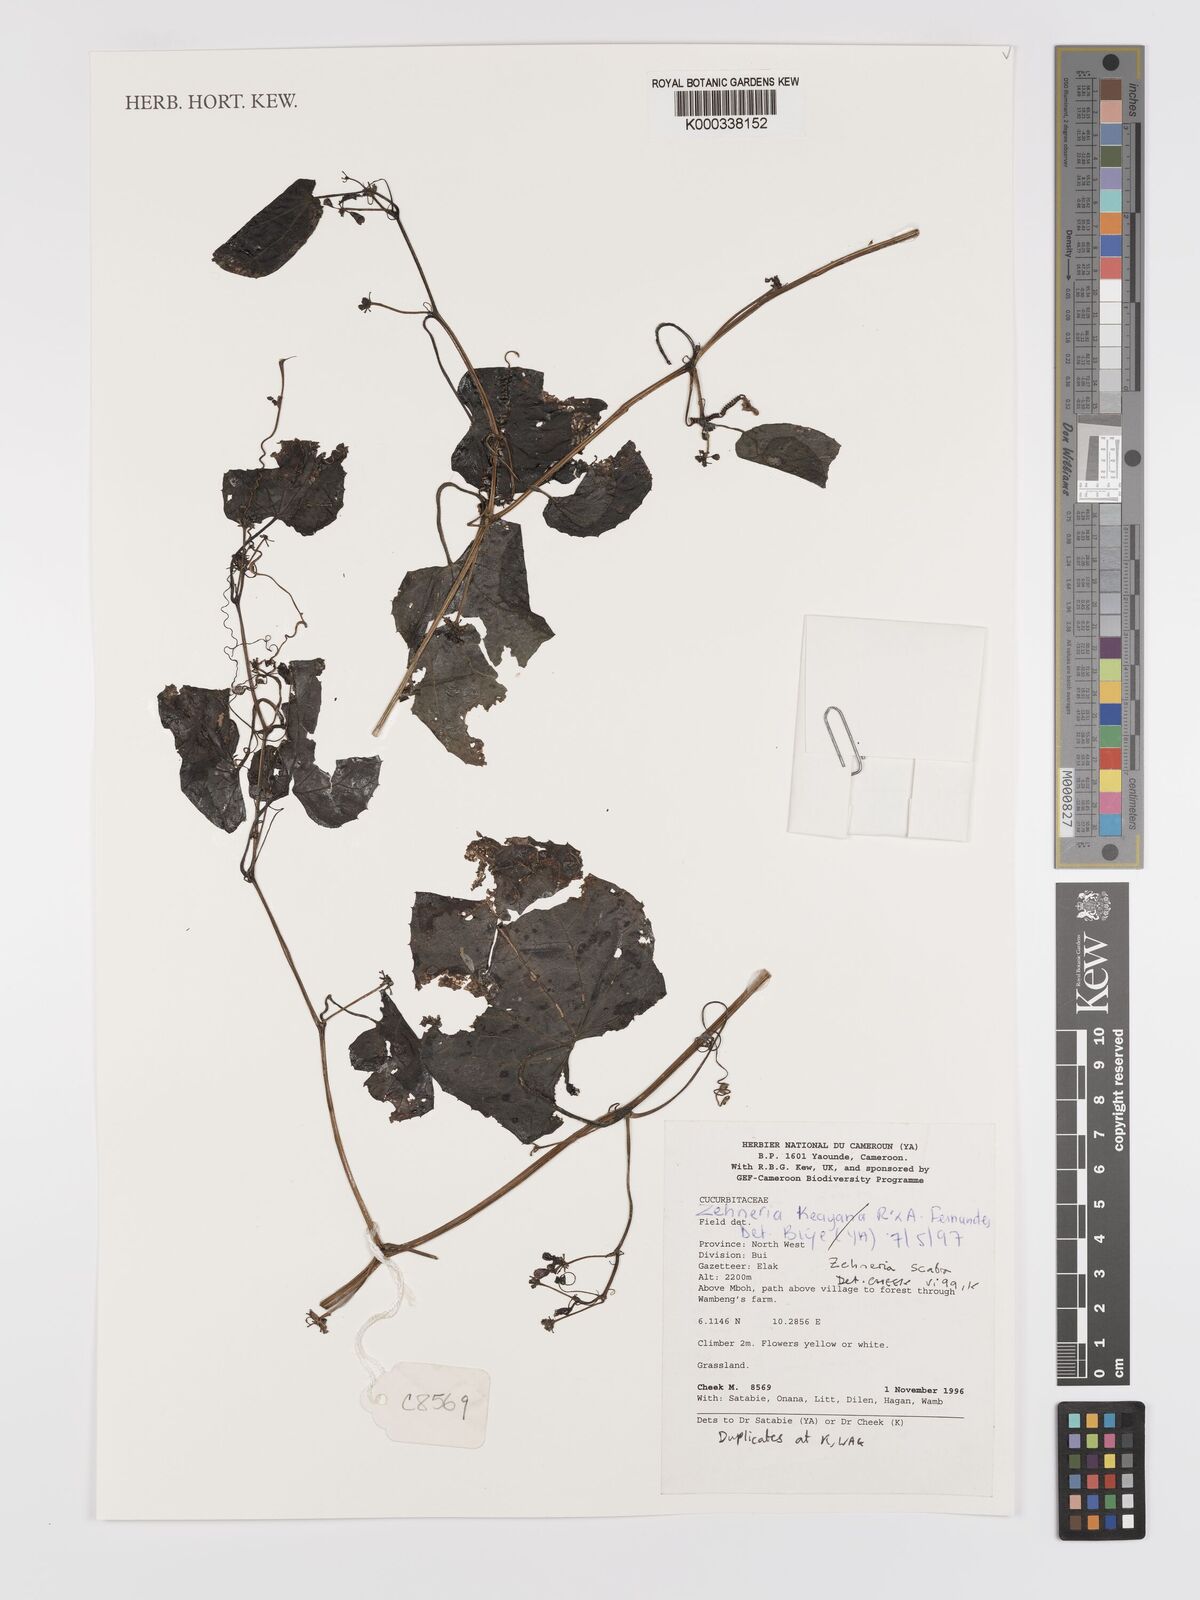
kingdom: Plantae
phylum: Tracheophyta
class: Magnoliopsida
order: Cucurbitales
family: Cucurbitaceae
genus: Zehneria
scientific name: Zehneria scabra
